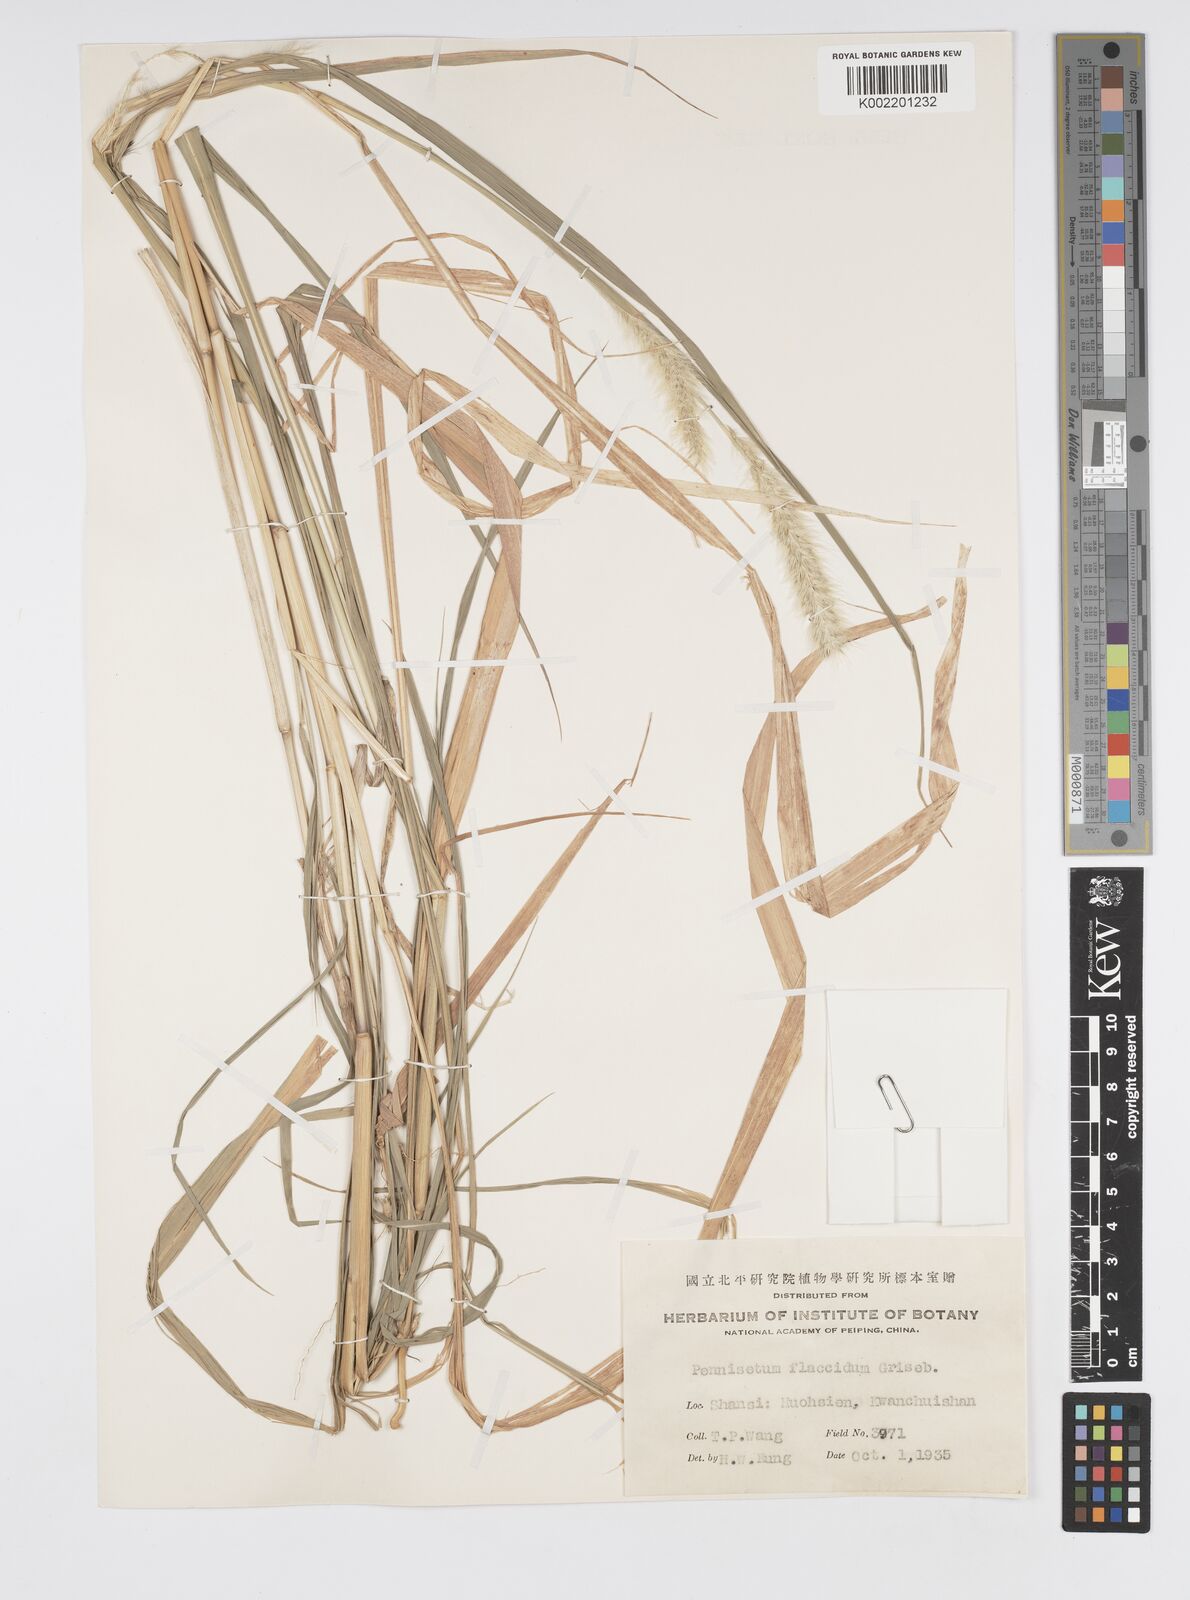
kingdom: Plantae
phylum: Tracheophyta
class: Liliopsida
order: Poales
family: Poaceae
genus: Cenchrus
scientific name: Cenchrus flaccidus
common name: Flaccid grass
